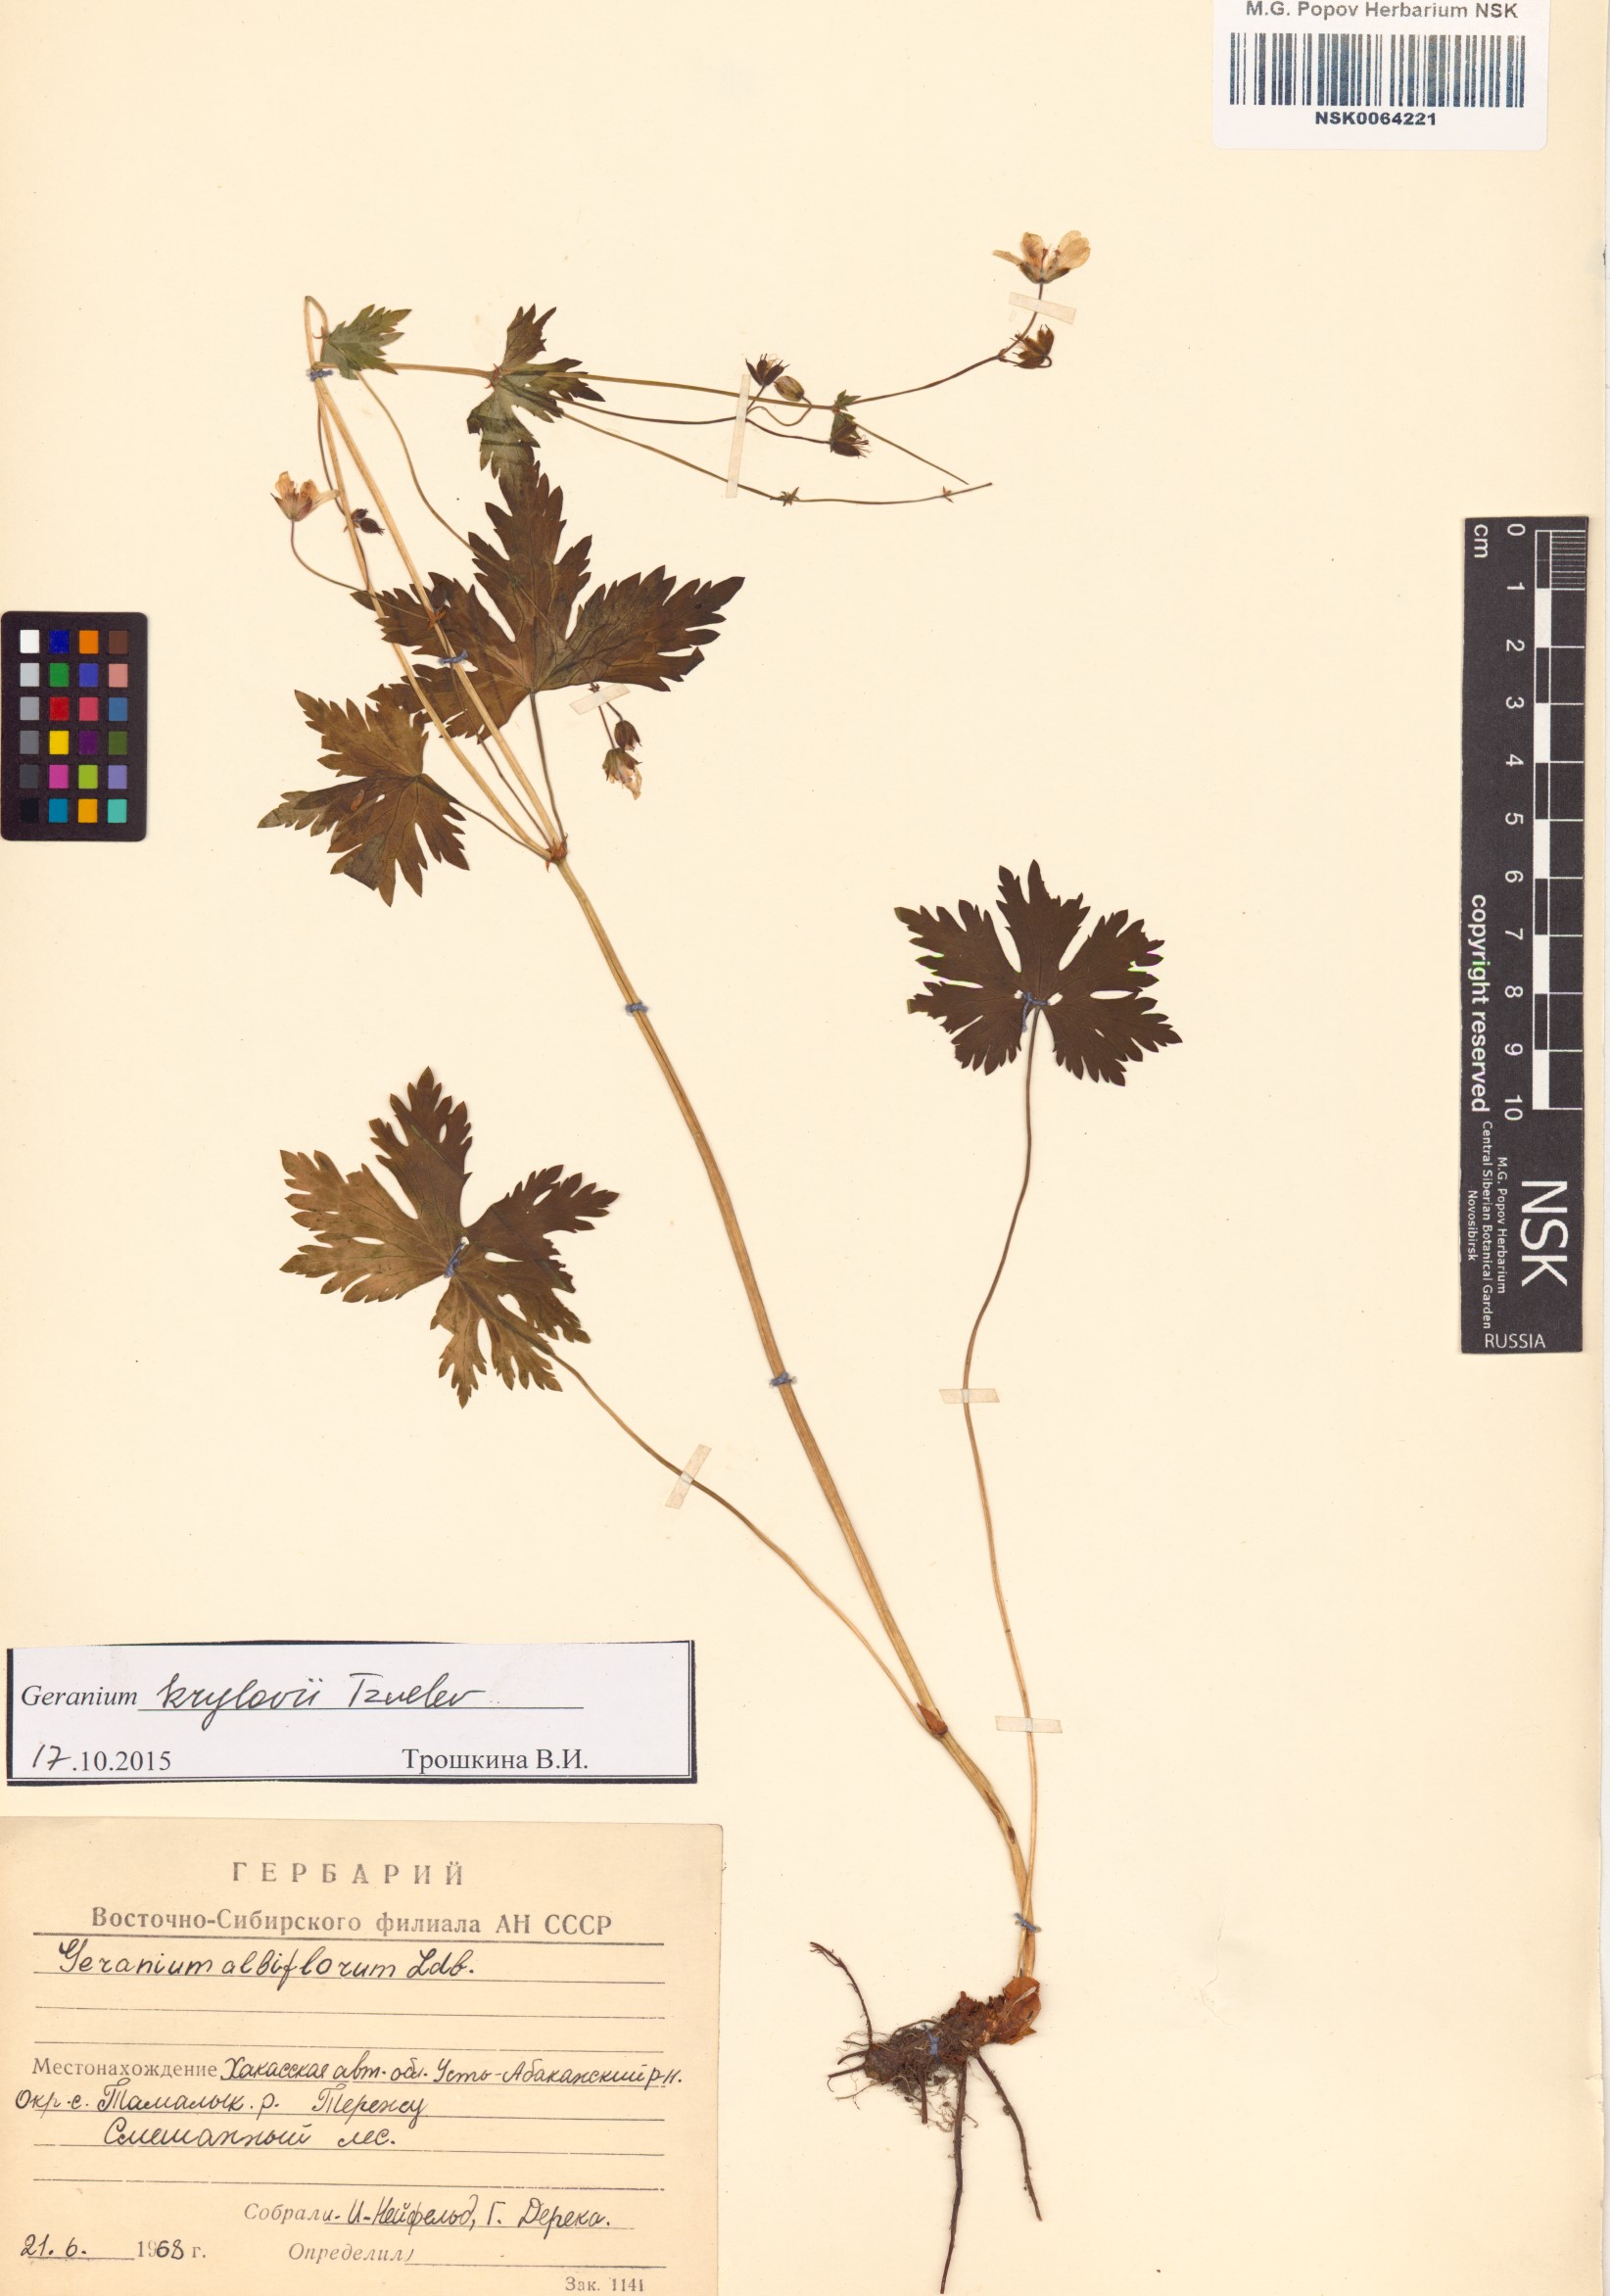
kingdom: Plantae
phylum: Tracheophyta
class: Magnoliopsida
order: Geraniales
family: Geraniaceae
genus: Geranium
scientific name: Geranium sylvaticum
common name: Wood crane's-bill
